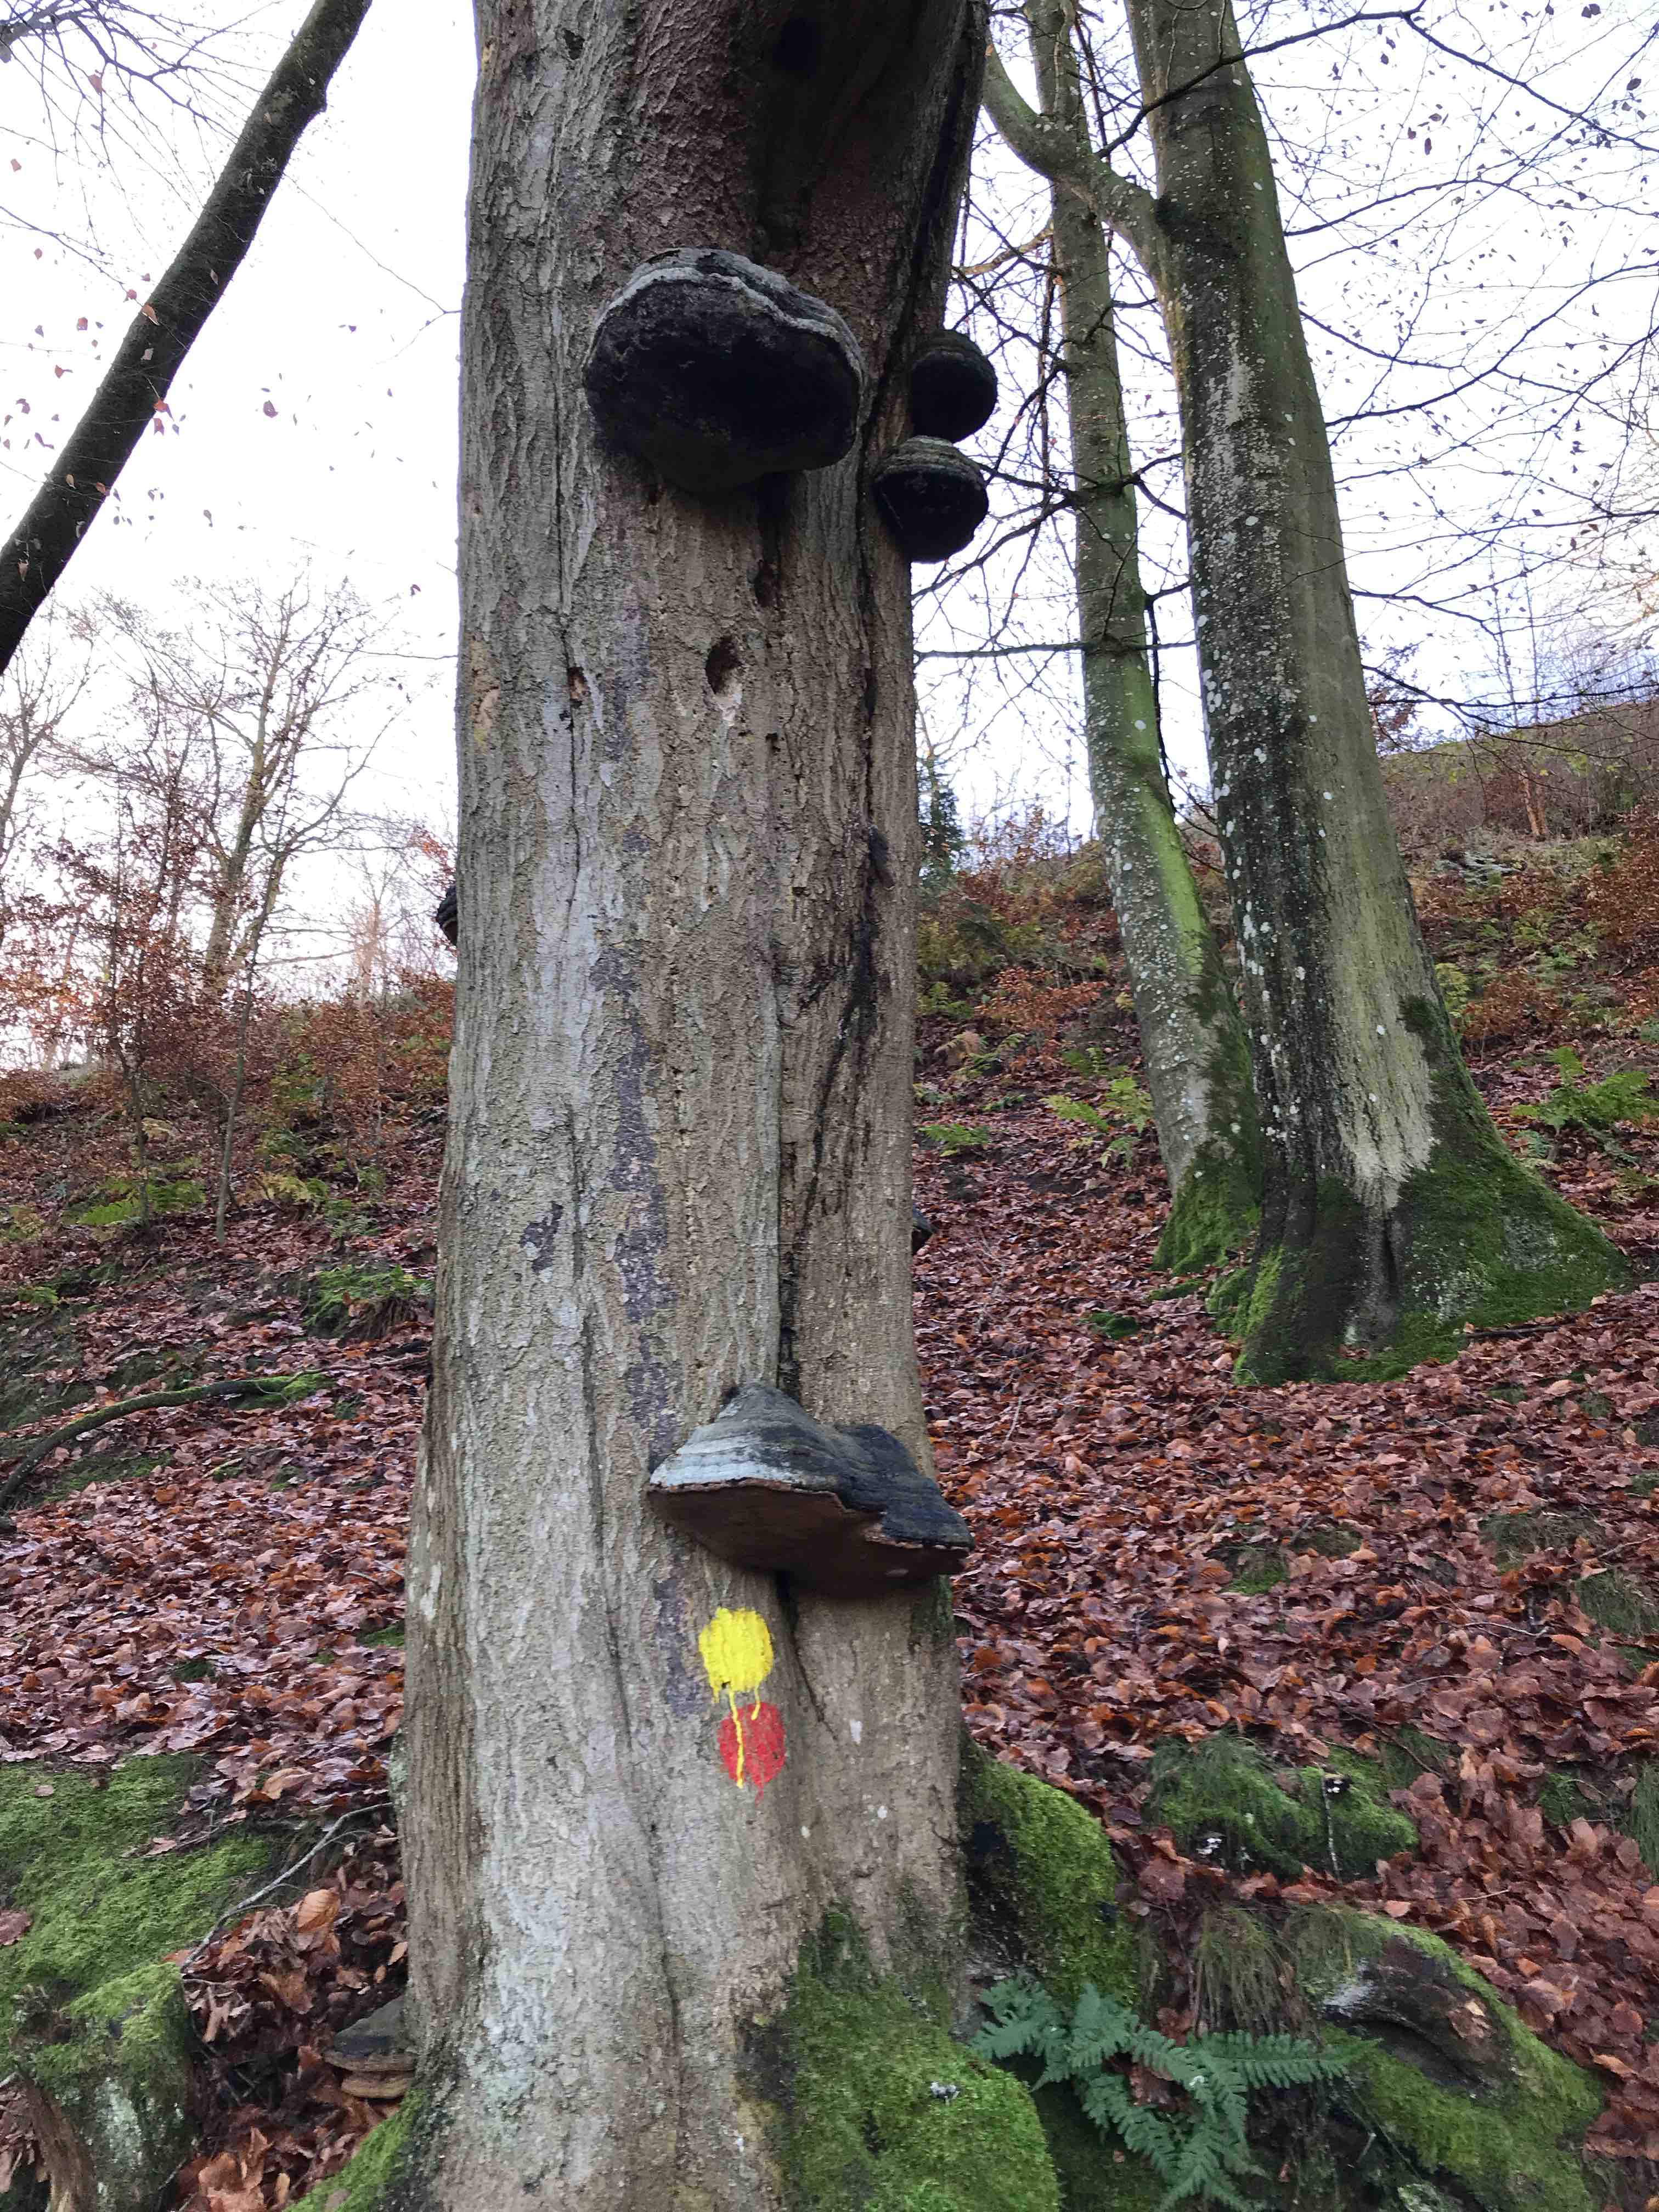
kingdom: Fungi
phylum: Basidiomycota
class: Agaricomycetes
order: Polyporales
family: Polyporaceae
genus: Fomes
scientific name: Fomes fomentarius
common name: tøndersvamp
